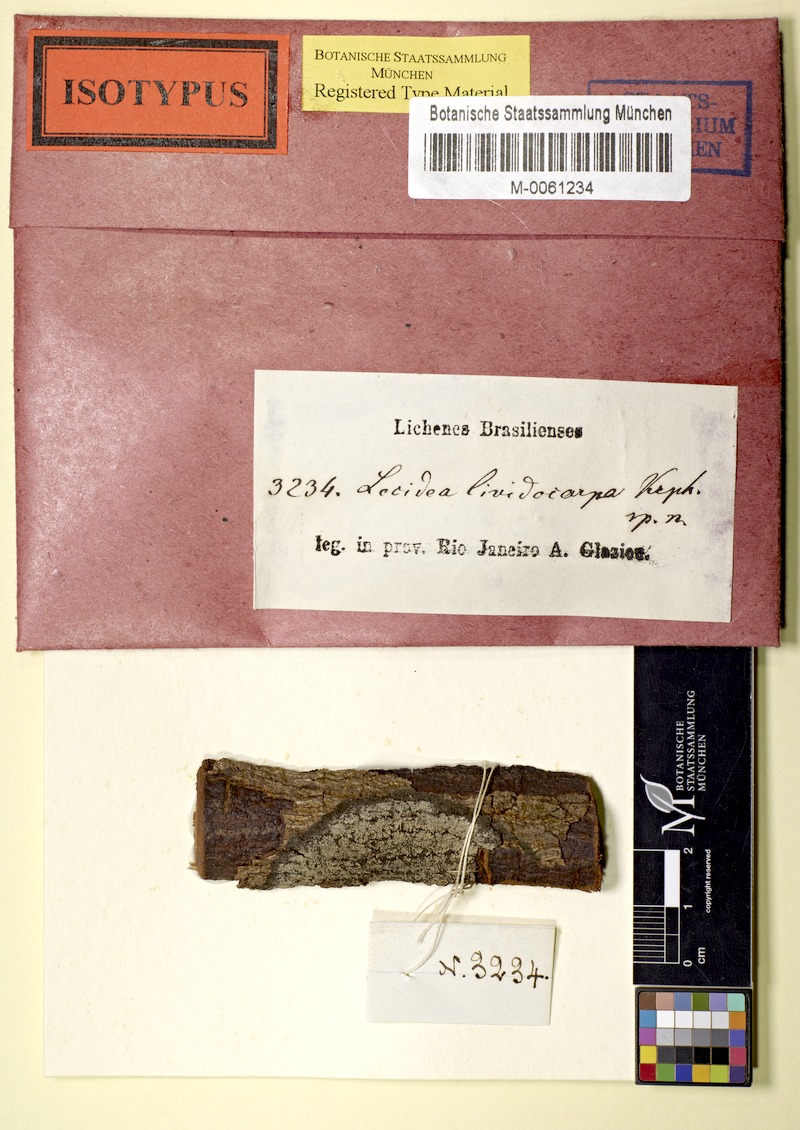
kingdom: Fungi
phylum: Ascomycota
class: Lecanoromycetes
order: Lecanorales
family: Catillariaceae
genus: Catillaria
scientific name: Catillaria
